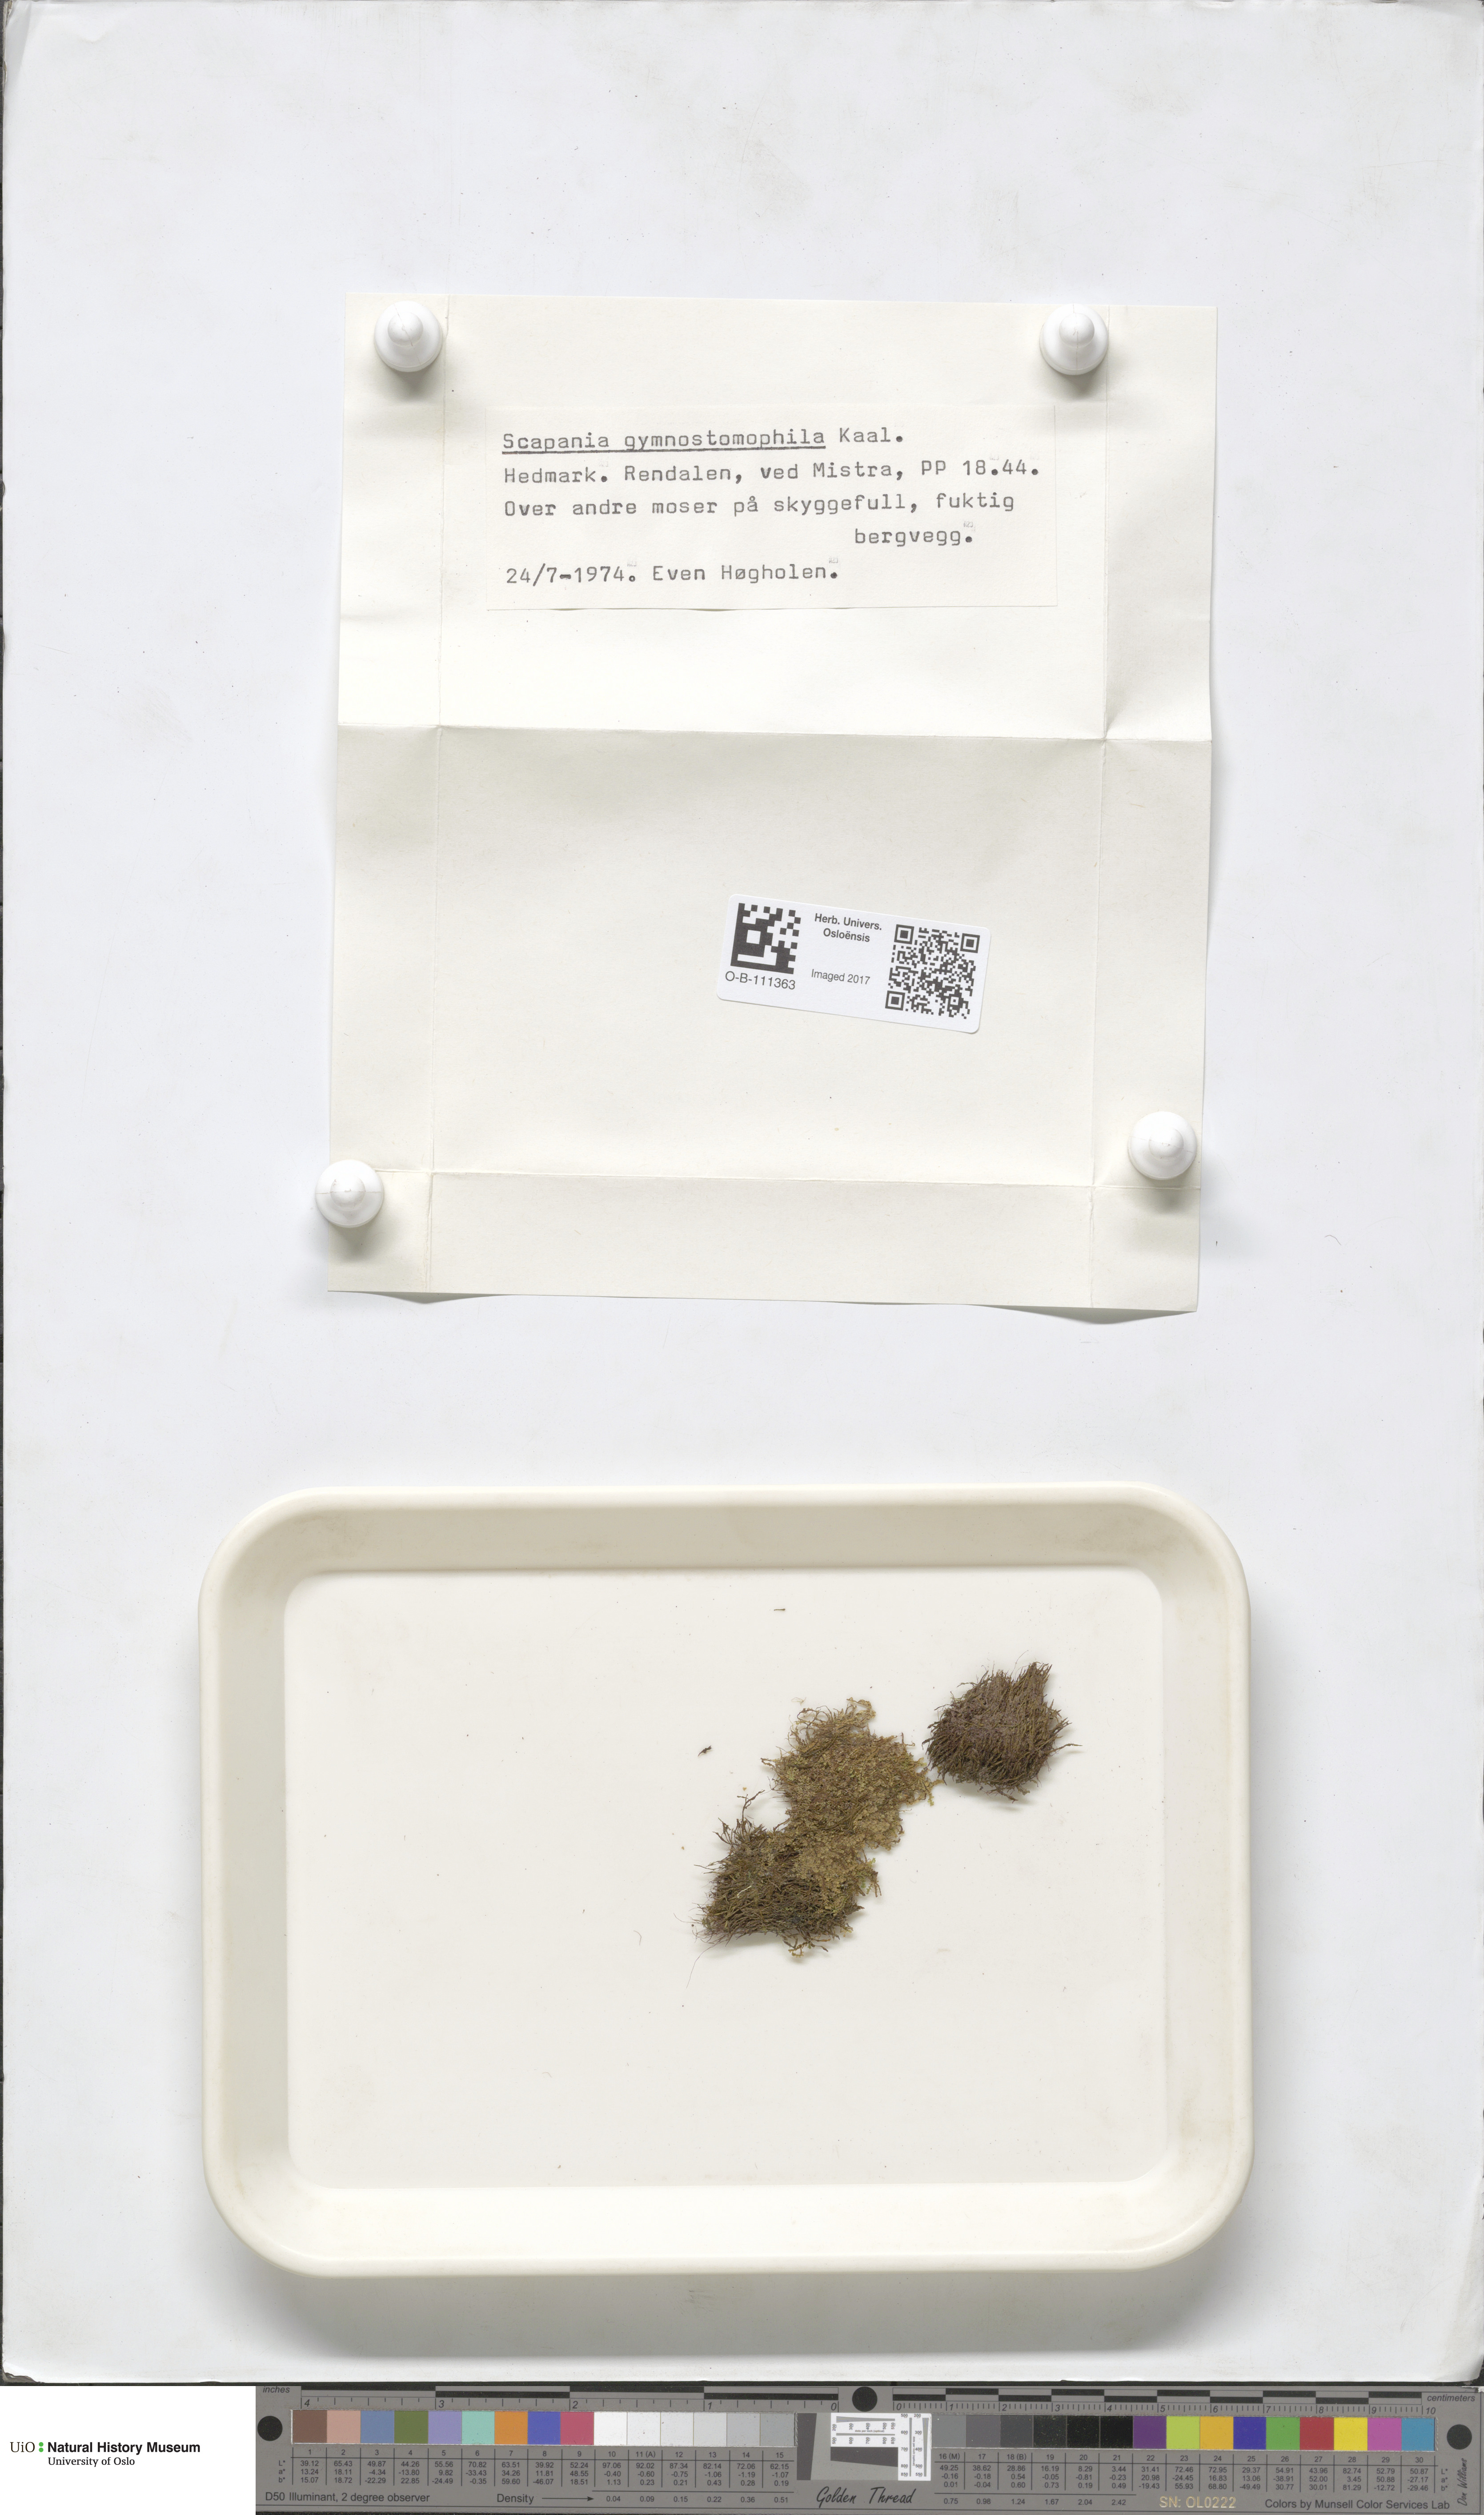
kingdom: Plantae
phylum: Marchantiophyta
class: Jungermanniopsida
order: Jungermanniales
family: Scapaniaceae
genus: Scapania
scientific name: Scapania gymnostomophila
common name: Narrow-lobed earwort
